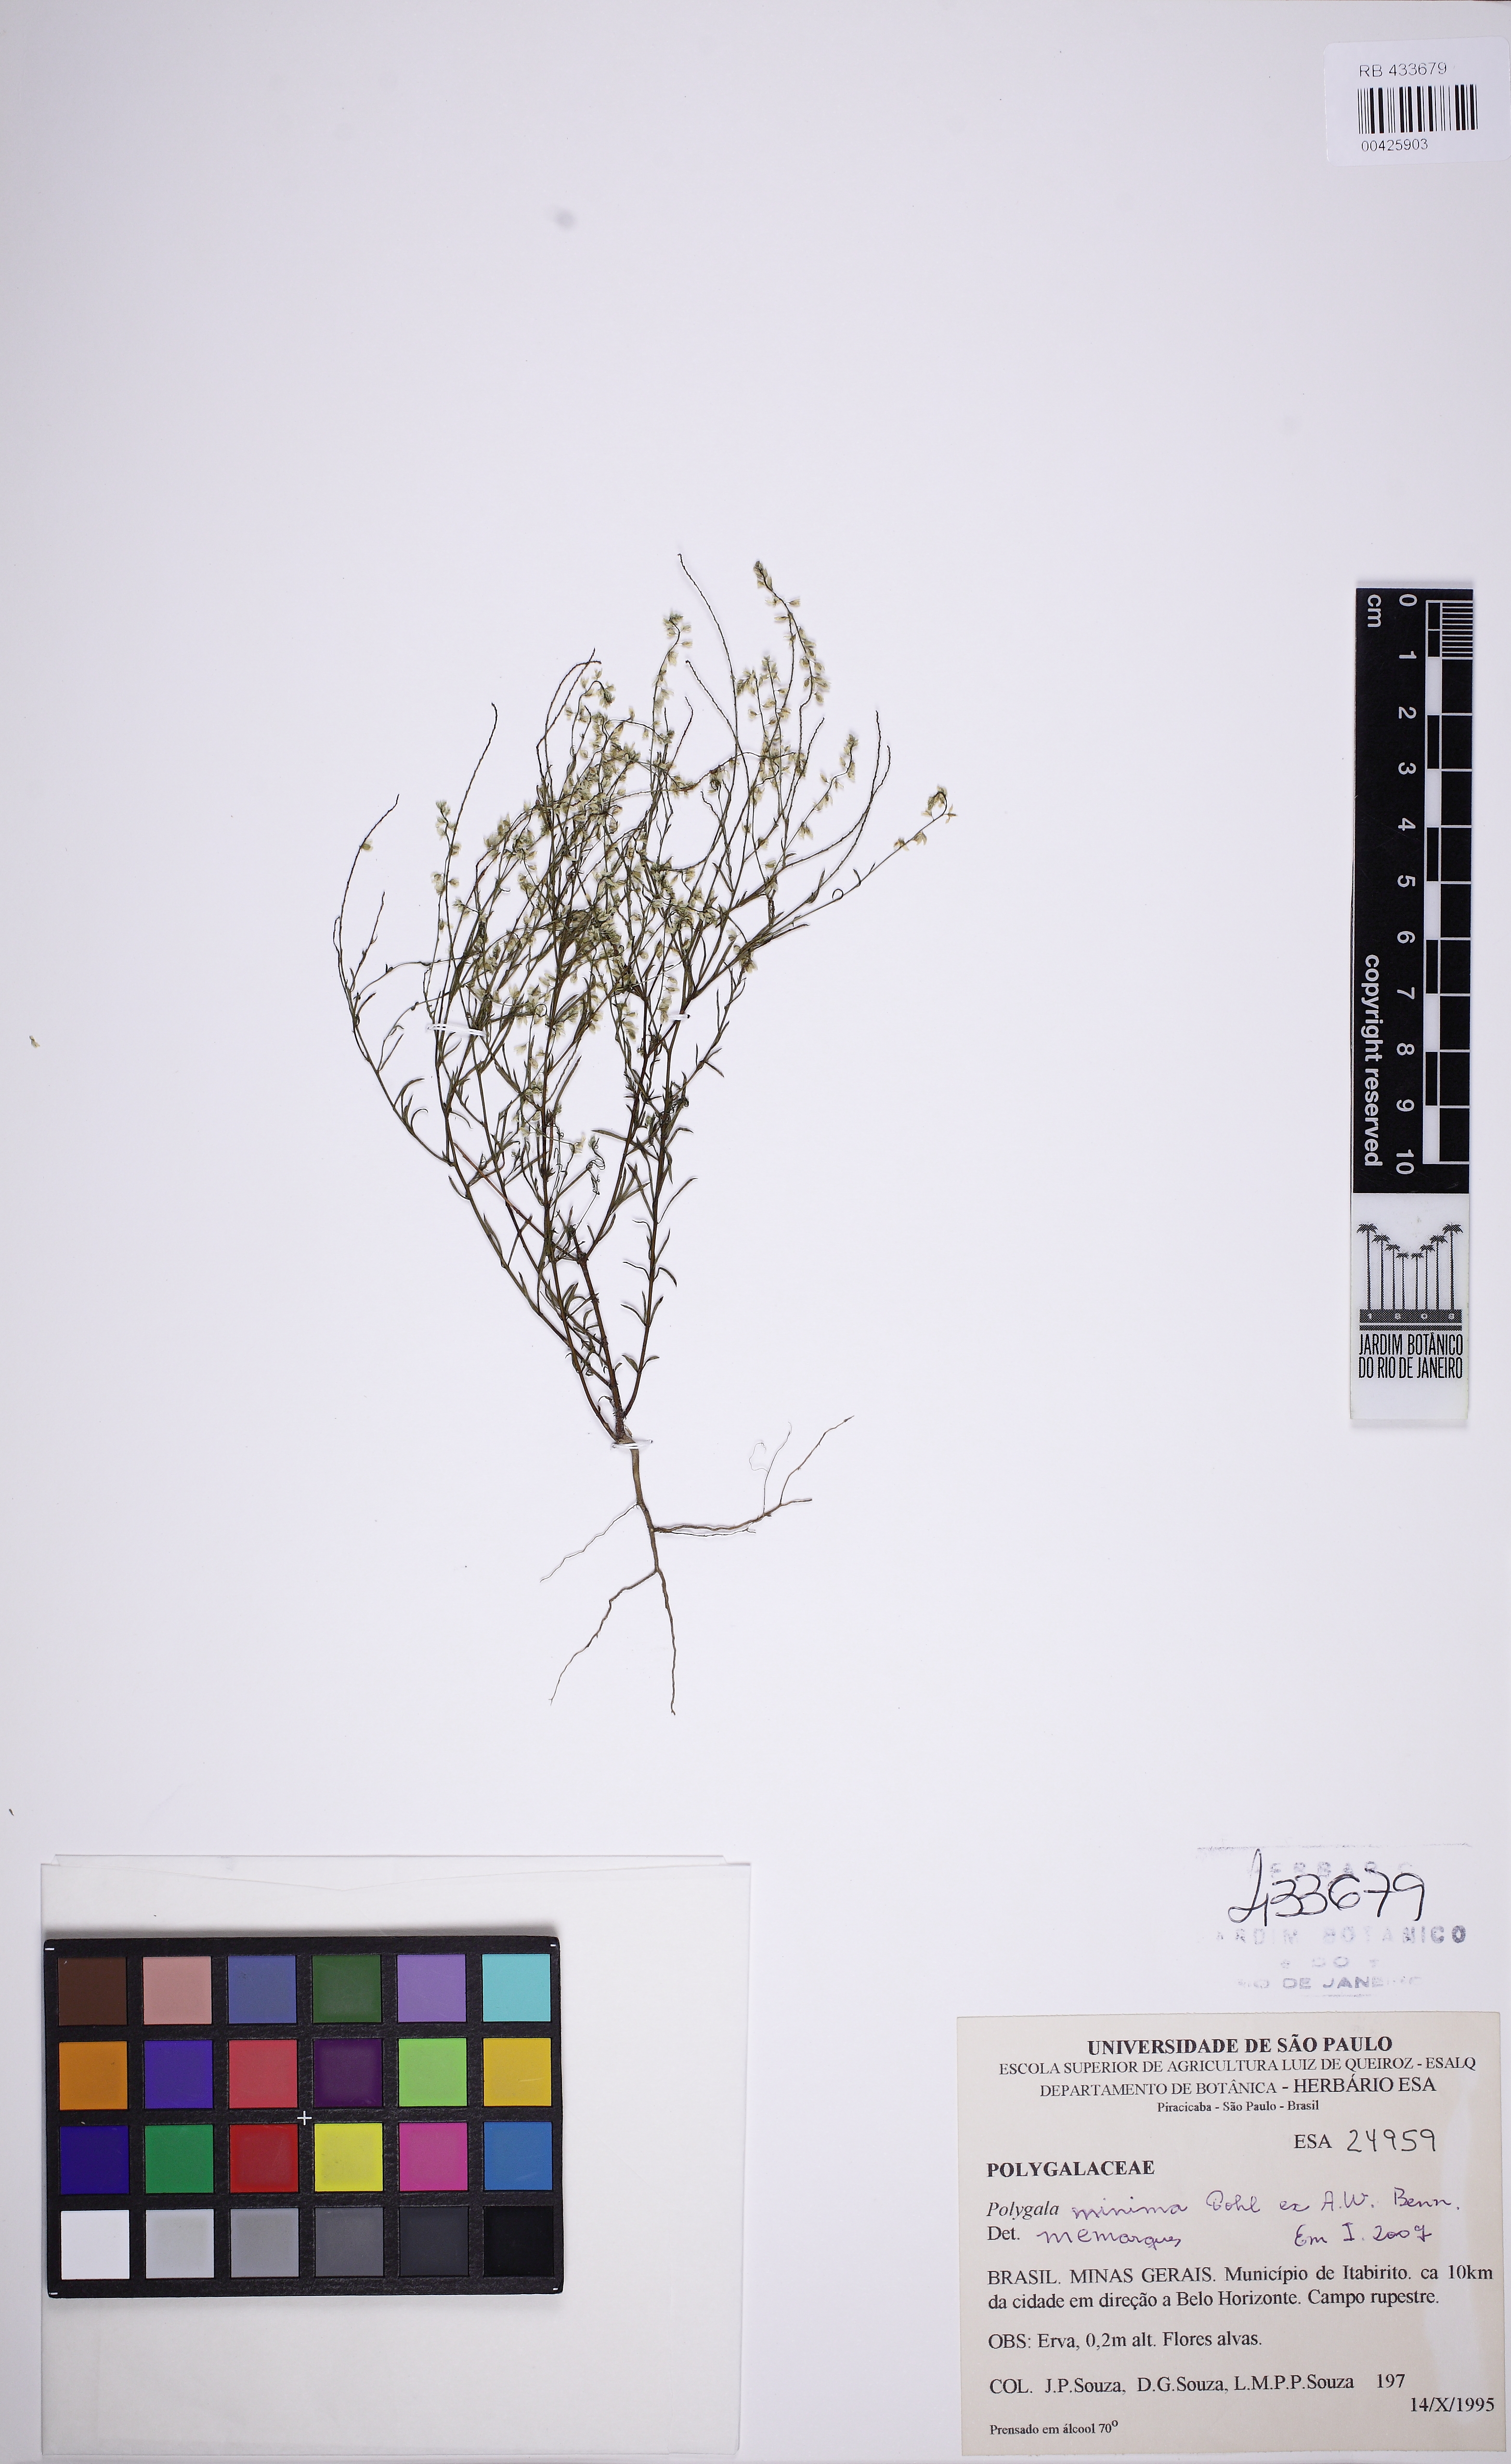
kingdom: Plantae
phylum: Tracheophyta
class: Magnoliopsida
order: Fabales
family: Polygalaceae
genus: Polygala
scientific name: Polygala glochidiata
